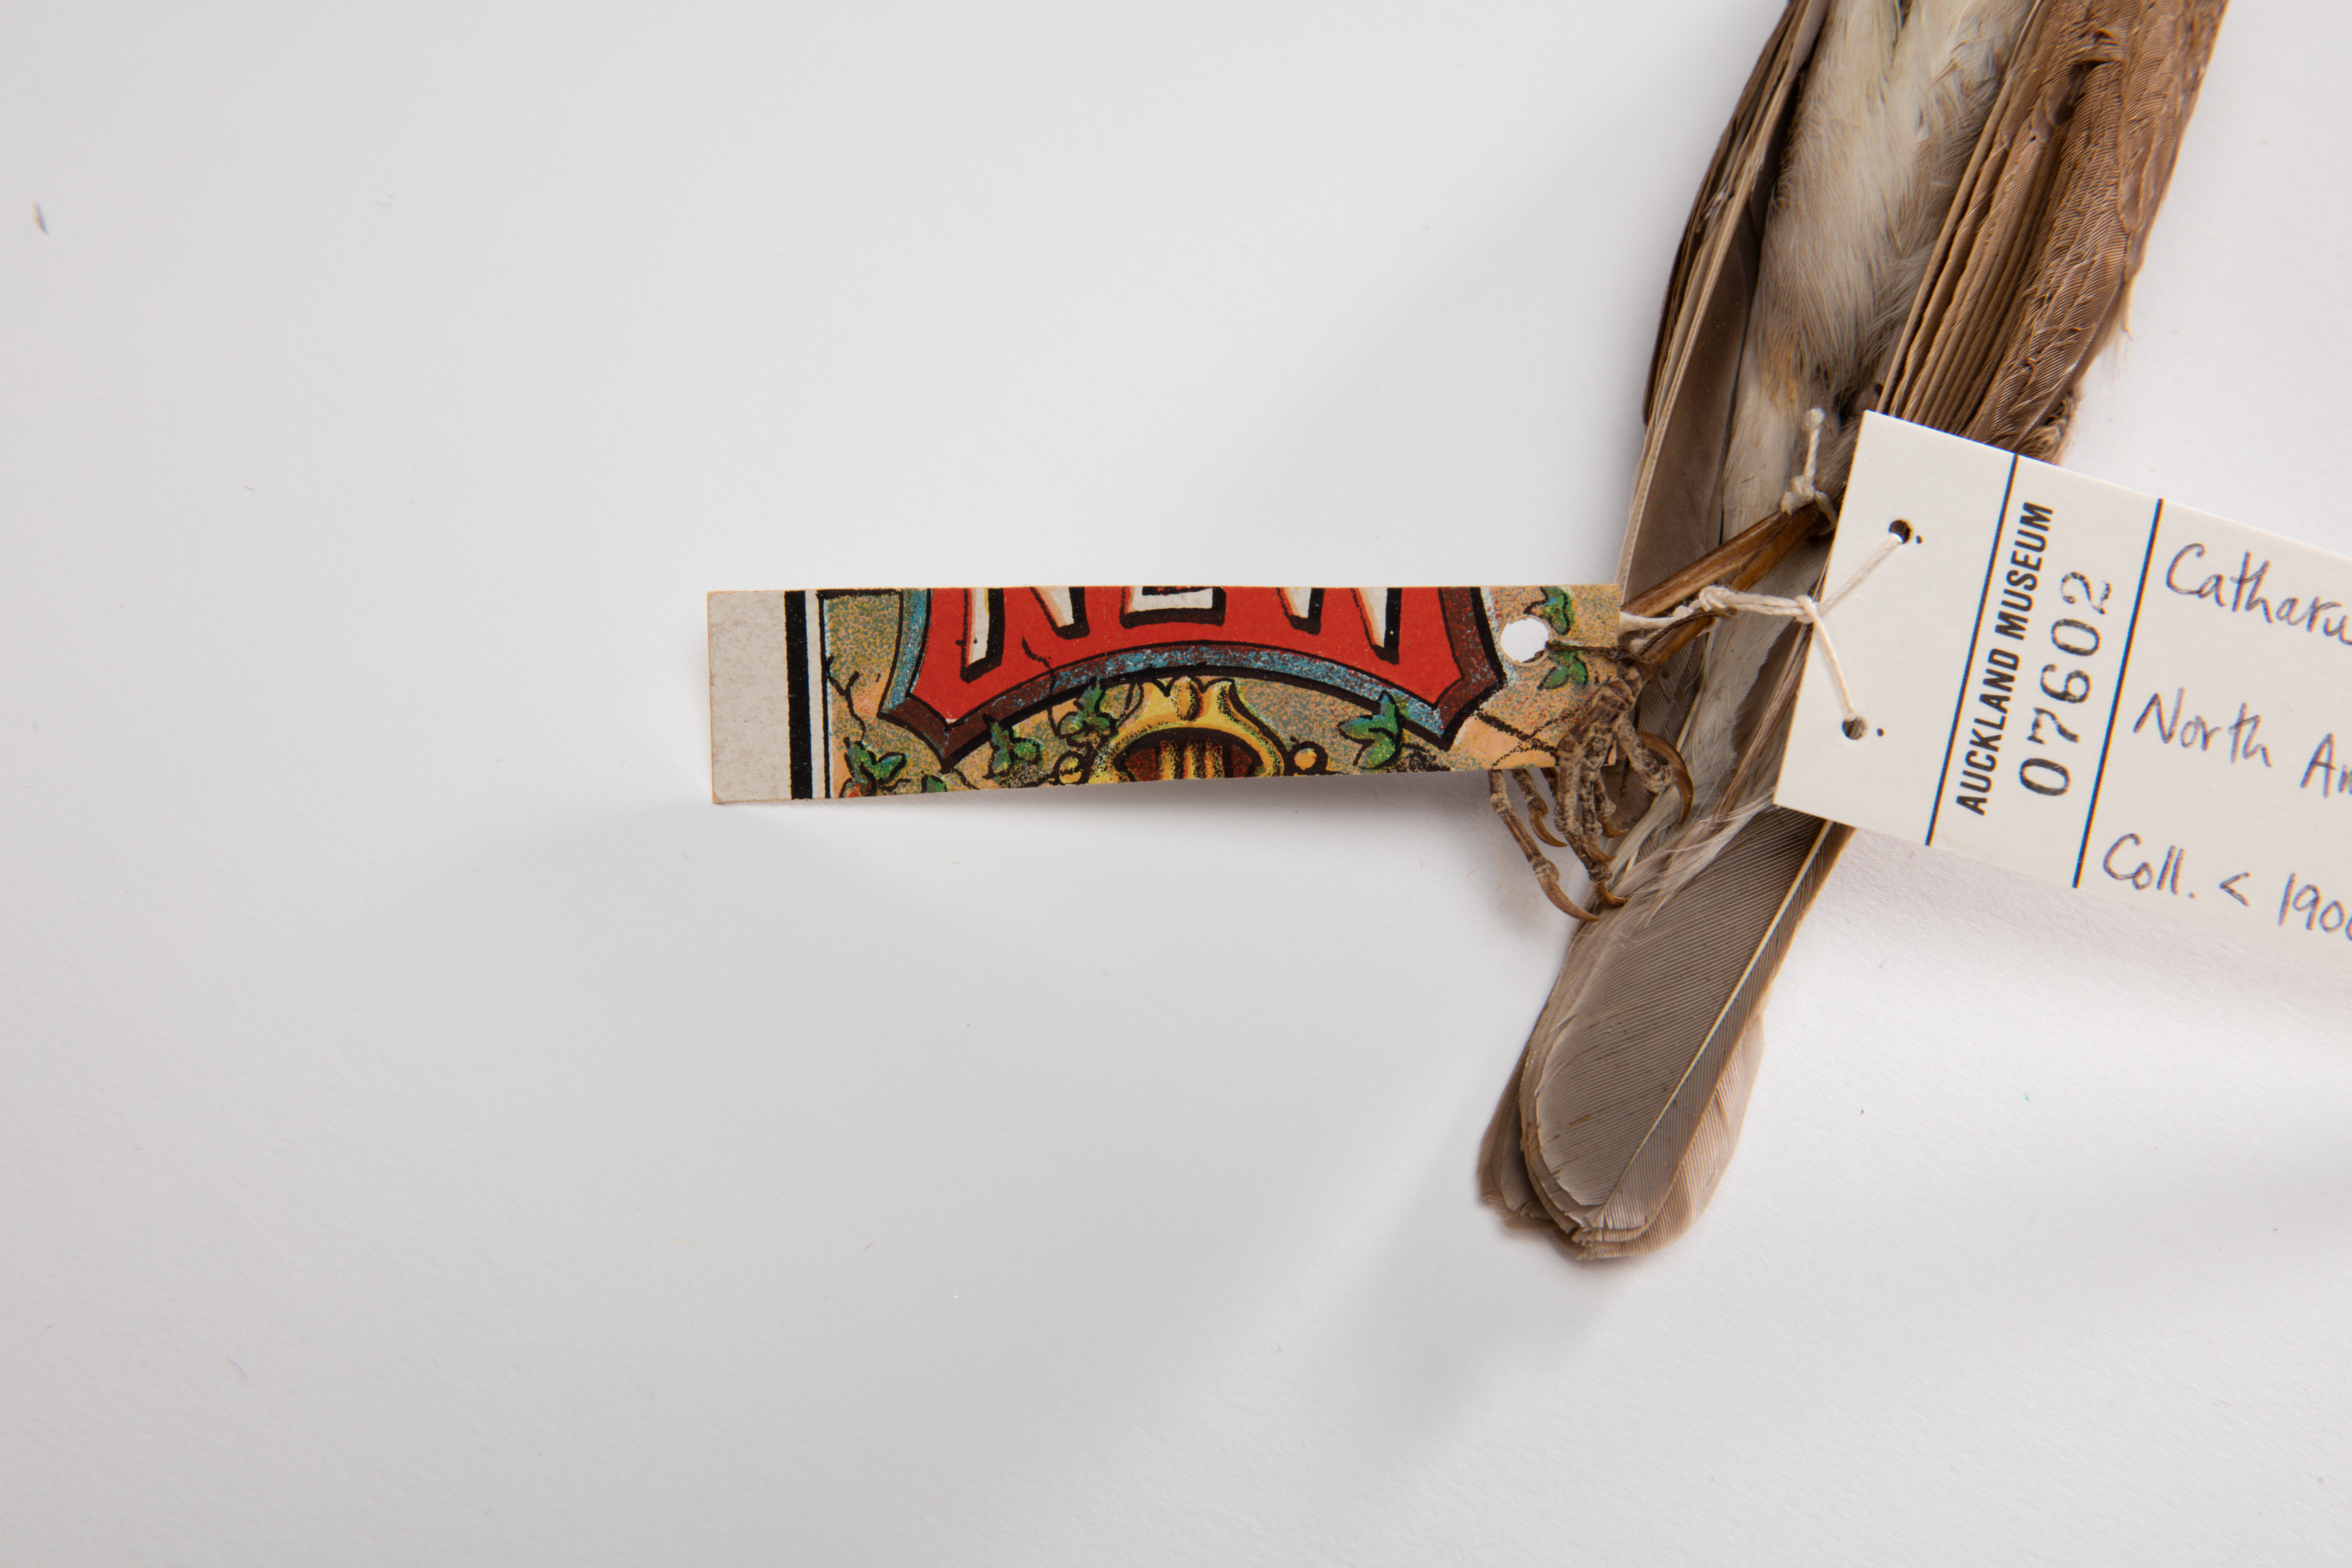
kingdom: Animalia
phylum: Chordata
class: Aves
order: Passeriformes
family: Turdidae
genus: Catharus
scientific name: Catharus fuscescens
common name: Veery
